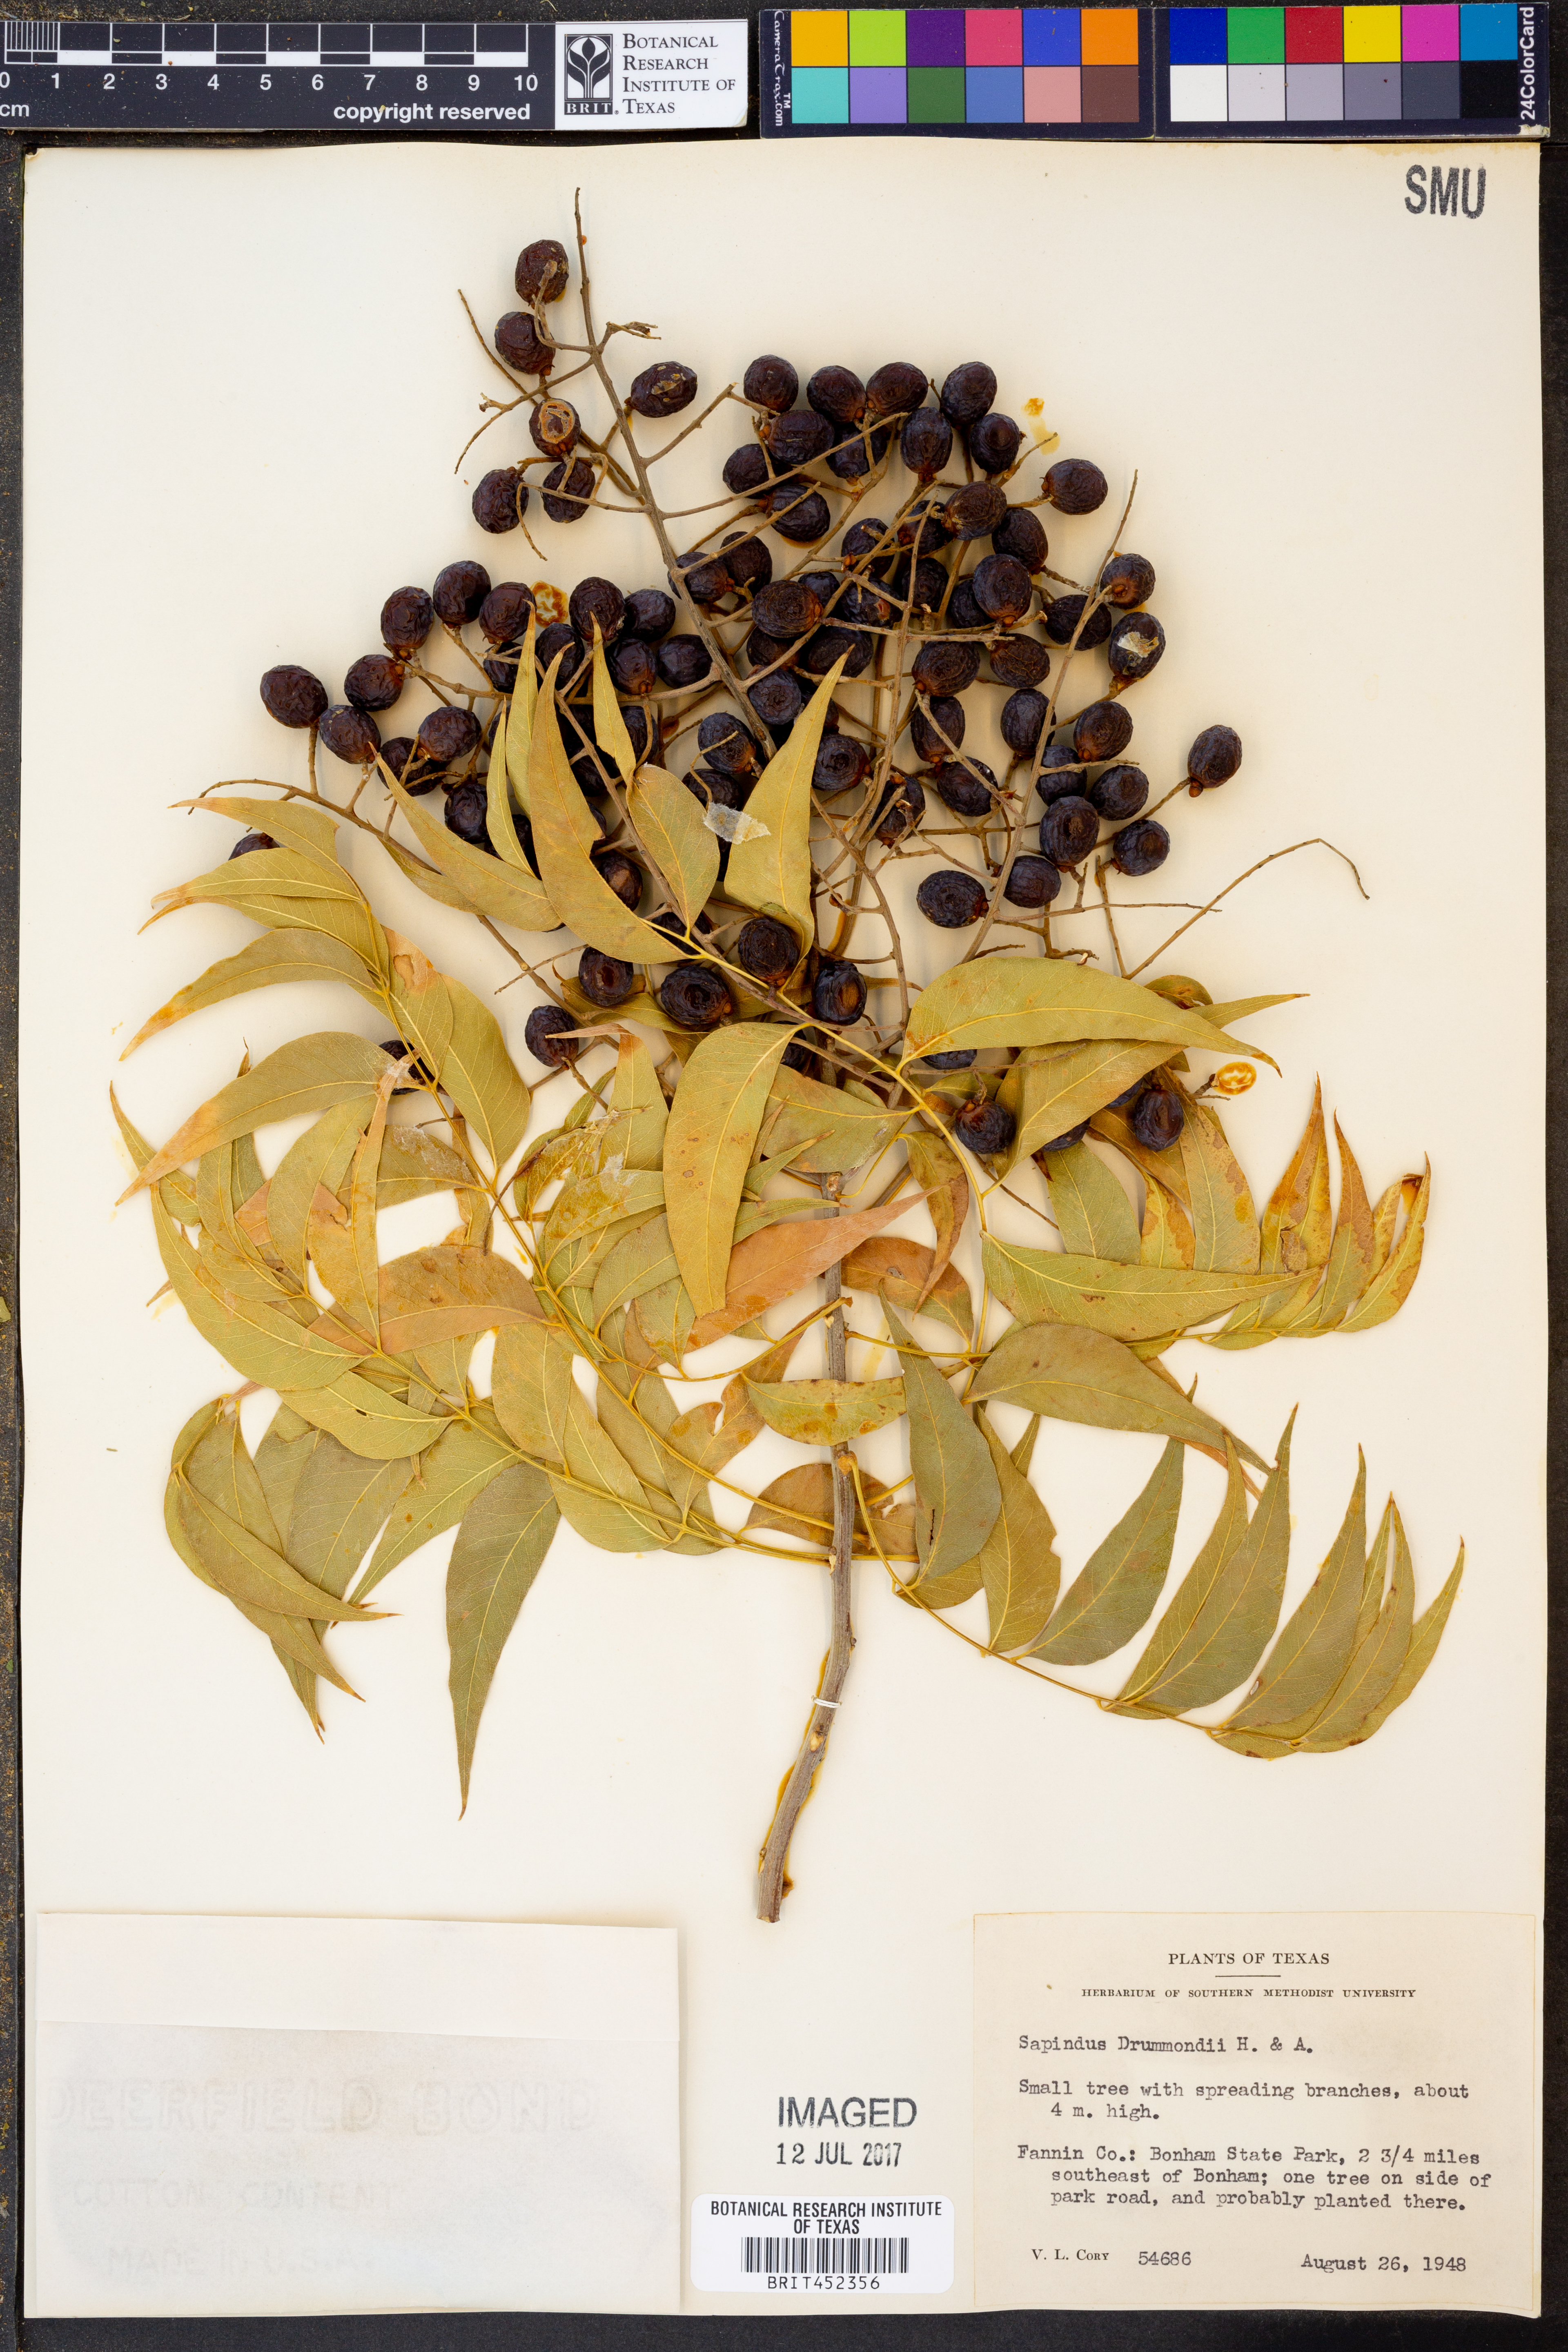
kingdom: Plantae
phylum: Tracheophyta
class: Magnoliopsida
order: Sapindales
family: Sapindaceae
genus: Sapindus
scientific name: Sapindus drummondii
